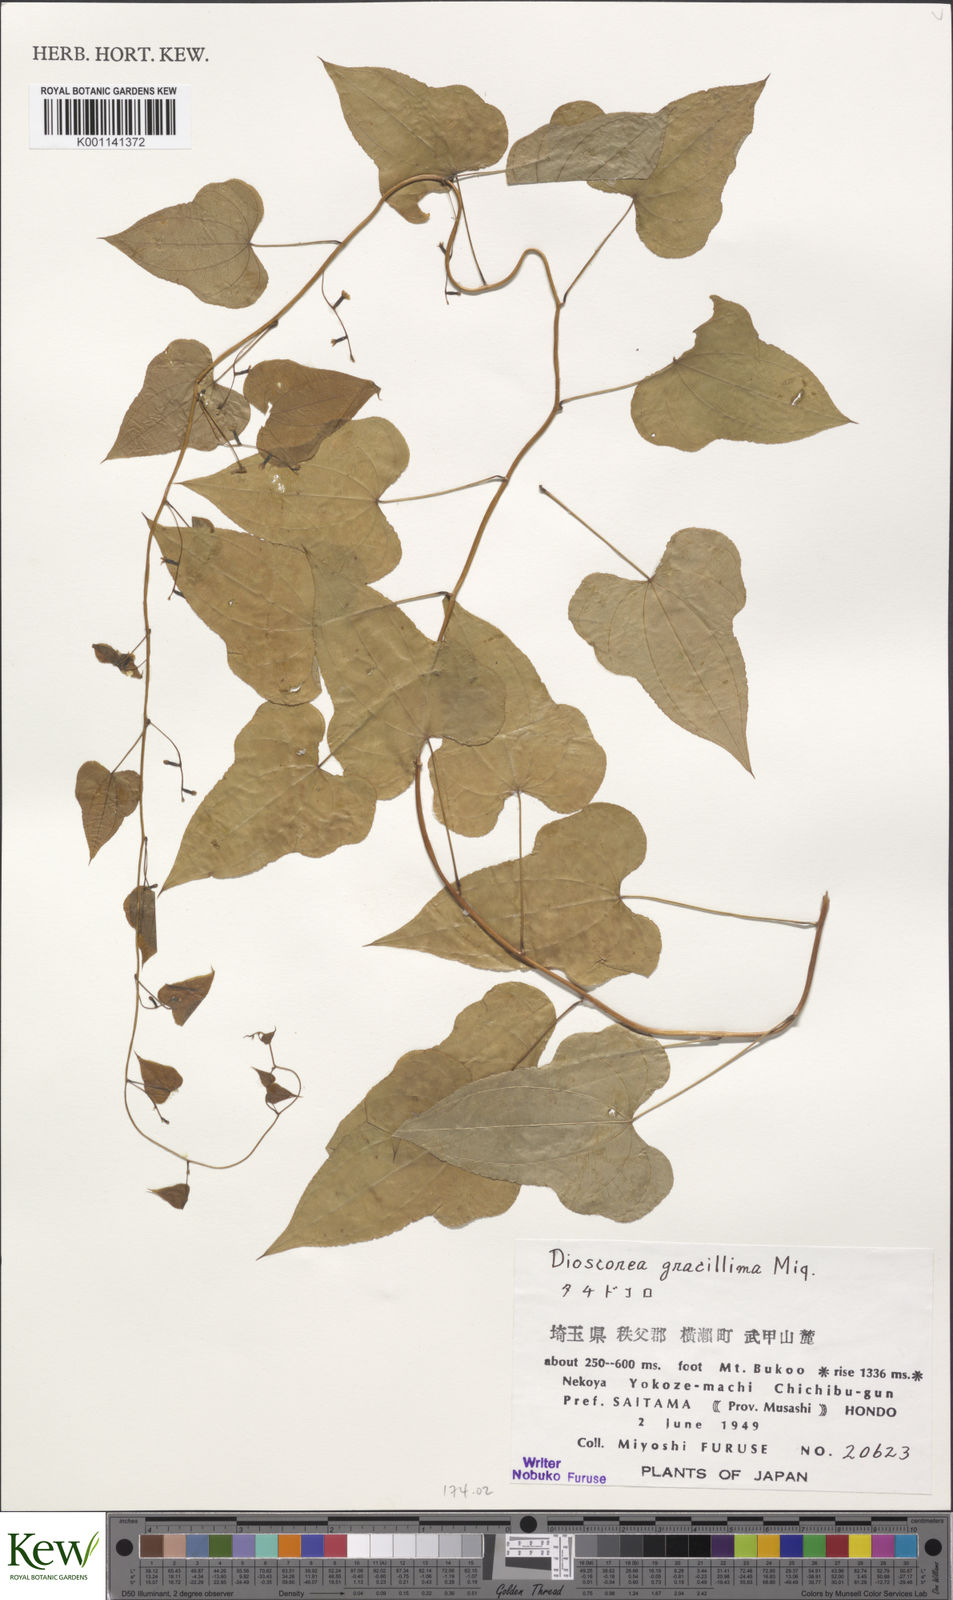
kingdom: Plantae
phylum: Tracheophyta
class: Liliopsida
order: Dioscoreales
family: Dioscoreaceae
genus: Dioscorea
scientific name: Dioscorea gracillima
